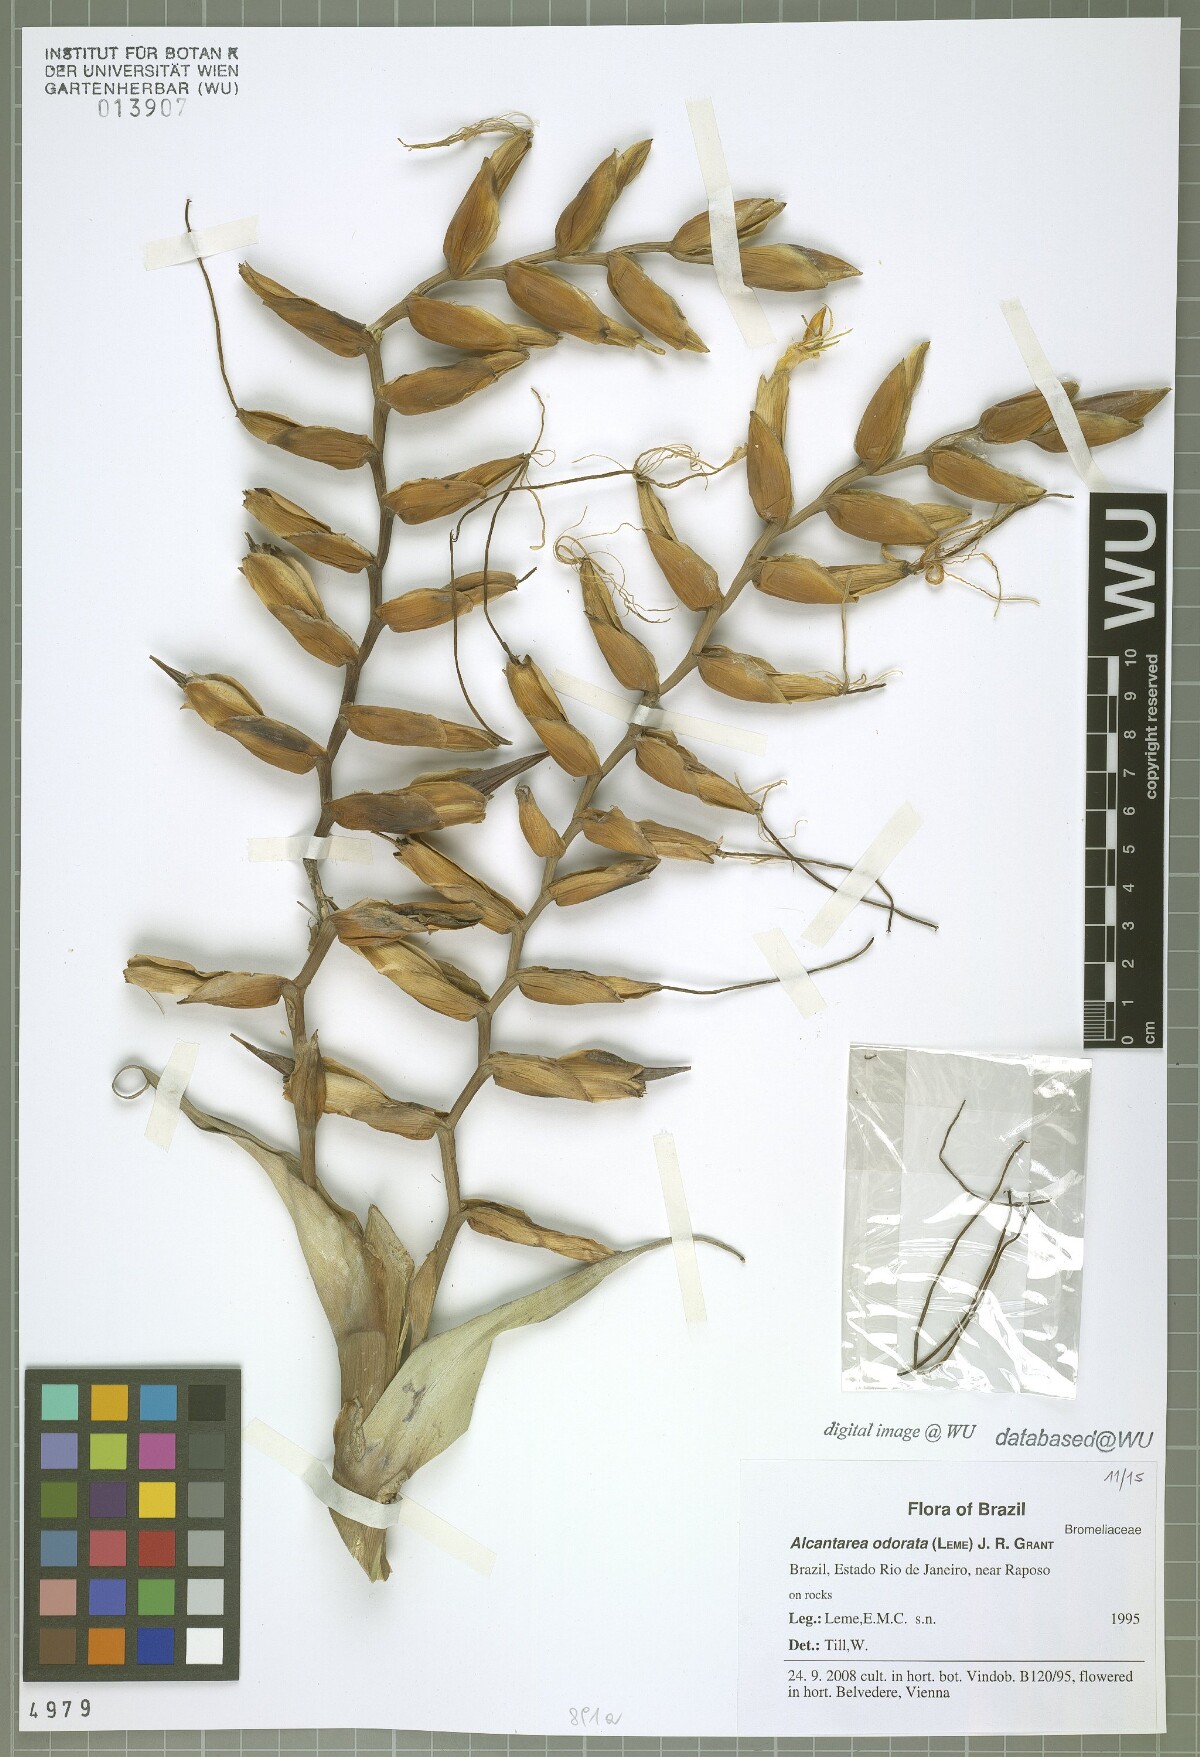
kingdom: Plantae
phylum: Tracheophyta
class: Liliopsida
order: Poales
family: Bromeliaceae
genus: Alcantarea
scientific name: Alcantarea odorata
